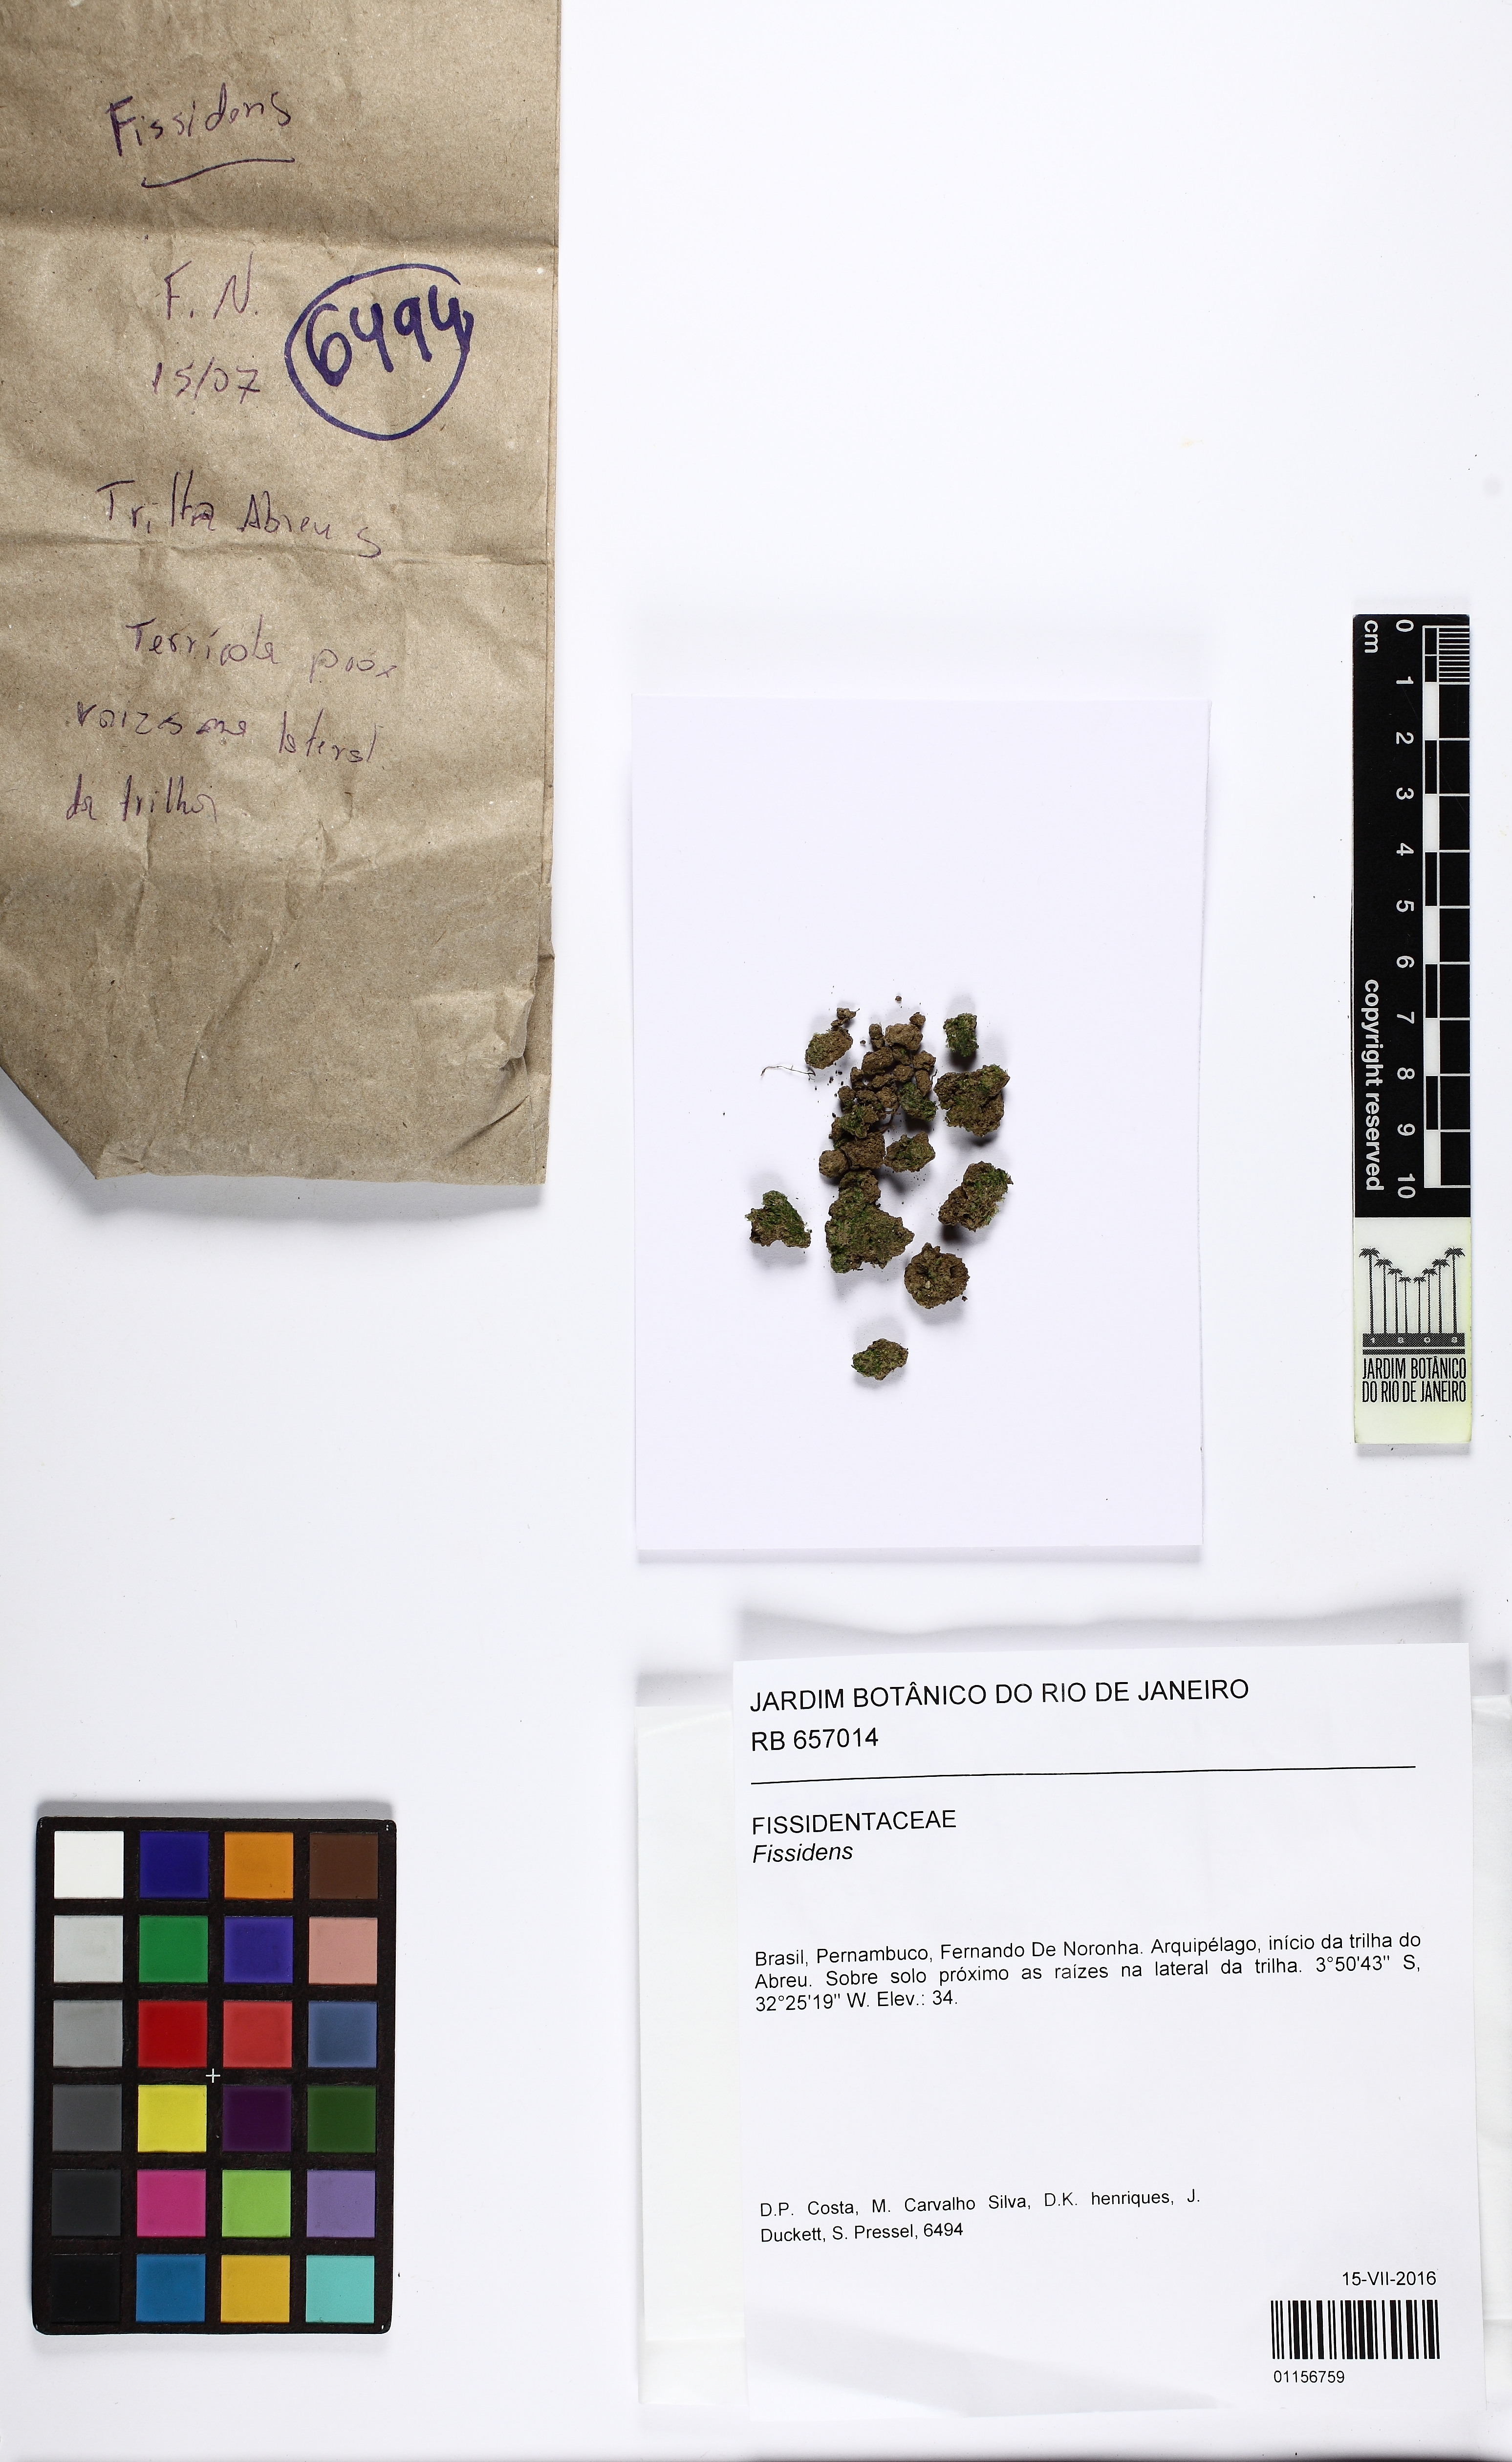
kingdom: Plantae
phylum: Bryophyta
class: Bryopsida
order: Dicranales
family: Fissidentaceae
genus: Fissidens
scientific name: Fissidens
